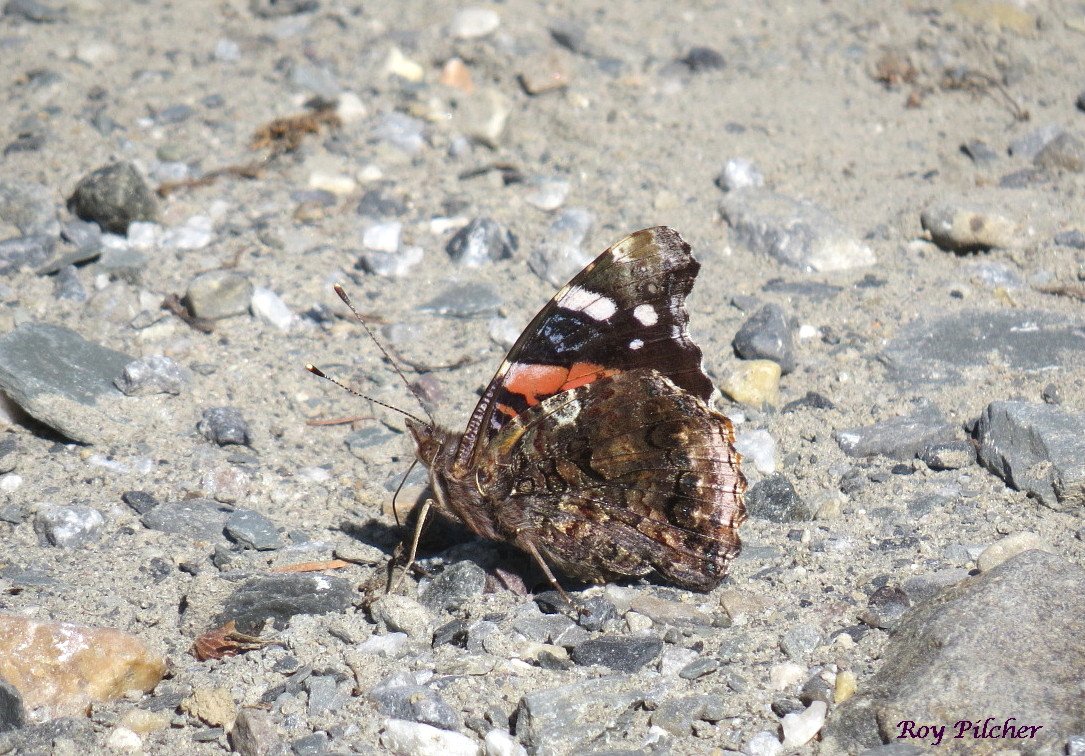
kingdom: Animalia
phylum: Arthropoda
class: Insecta
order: Lepidoptera
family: Nymphalidae
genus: Vanessa
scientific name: Vanessa atalanta
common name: Red Admiral
